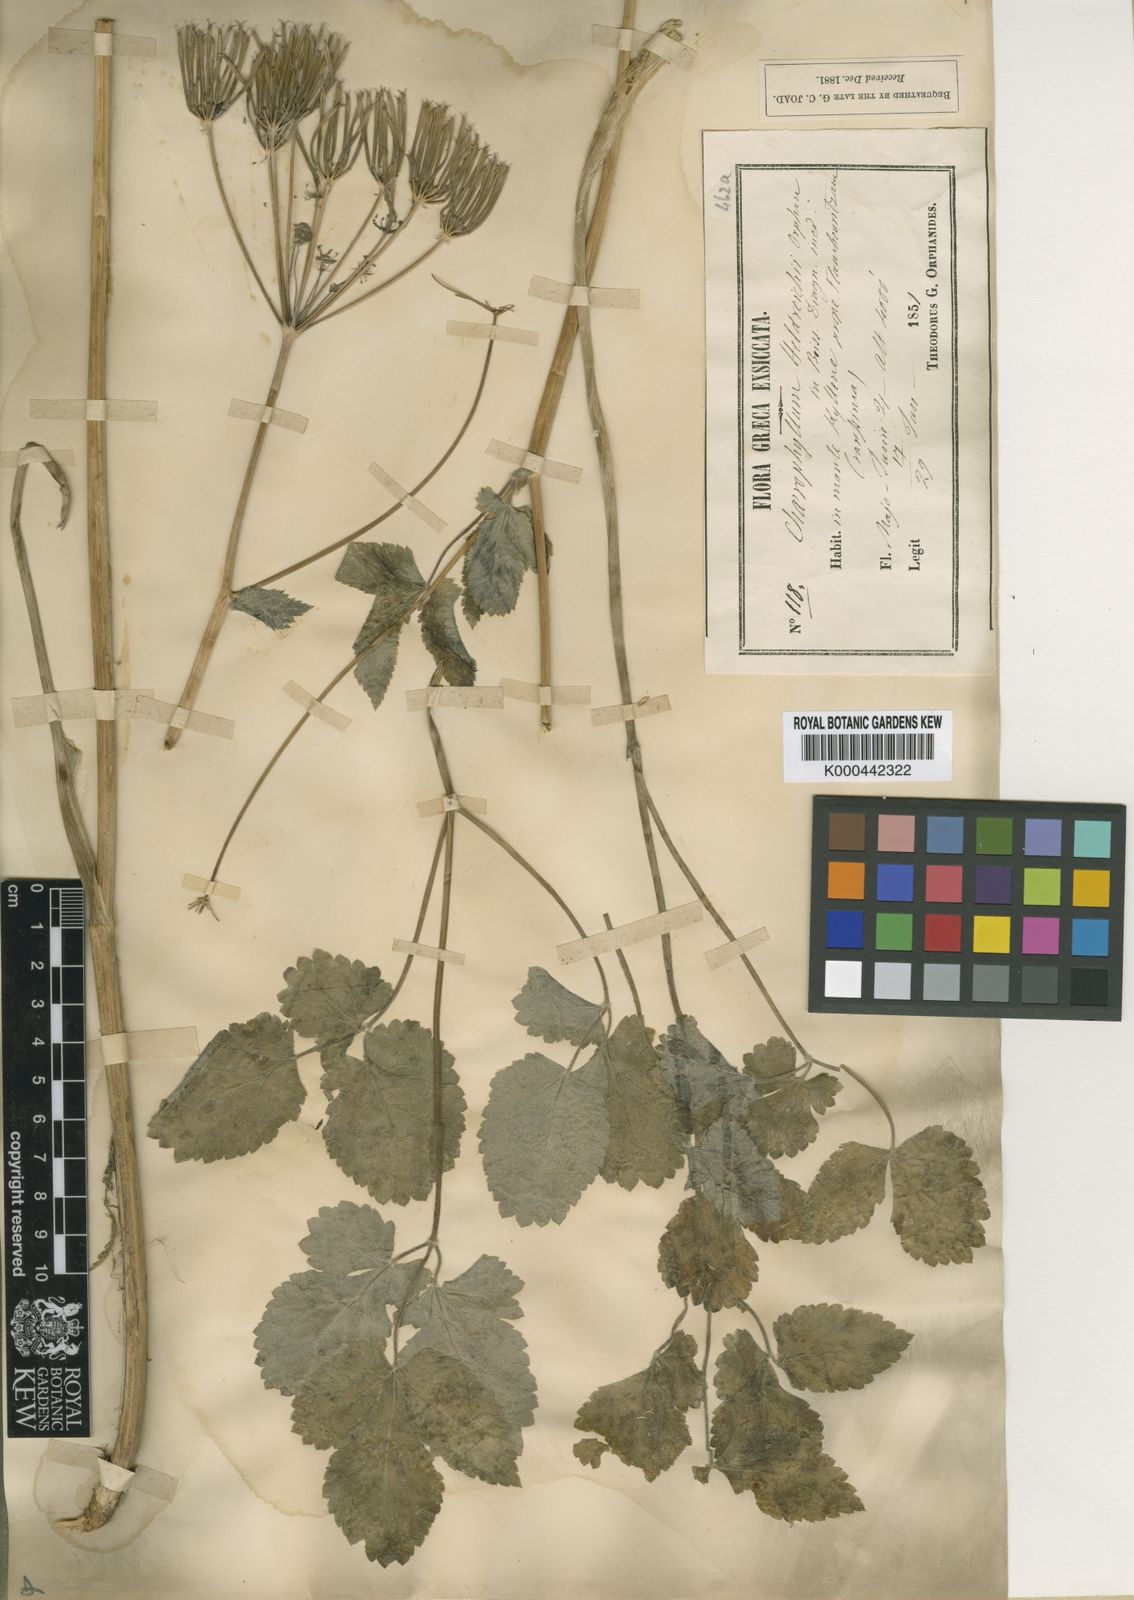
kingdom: Plantae
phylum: Tracheophyta
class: Magnoliopsida
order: Apiales
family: Apiaceae
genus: Chaerophyllum
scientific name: Chaerophyllum heldreichii
